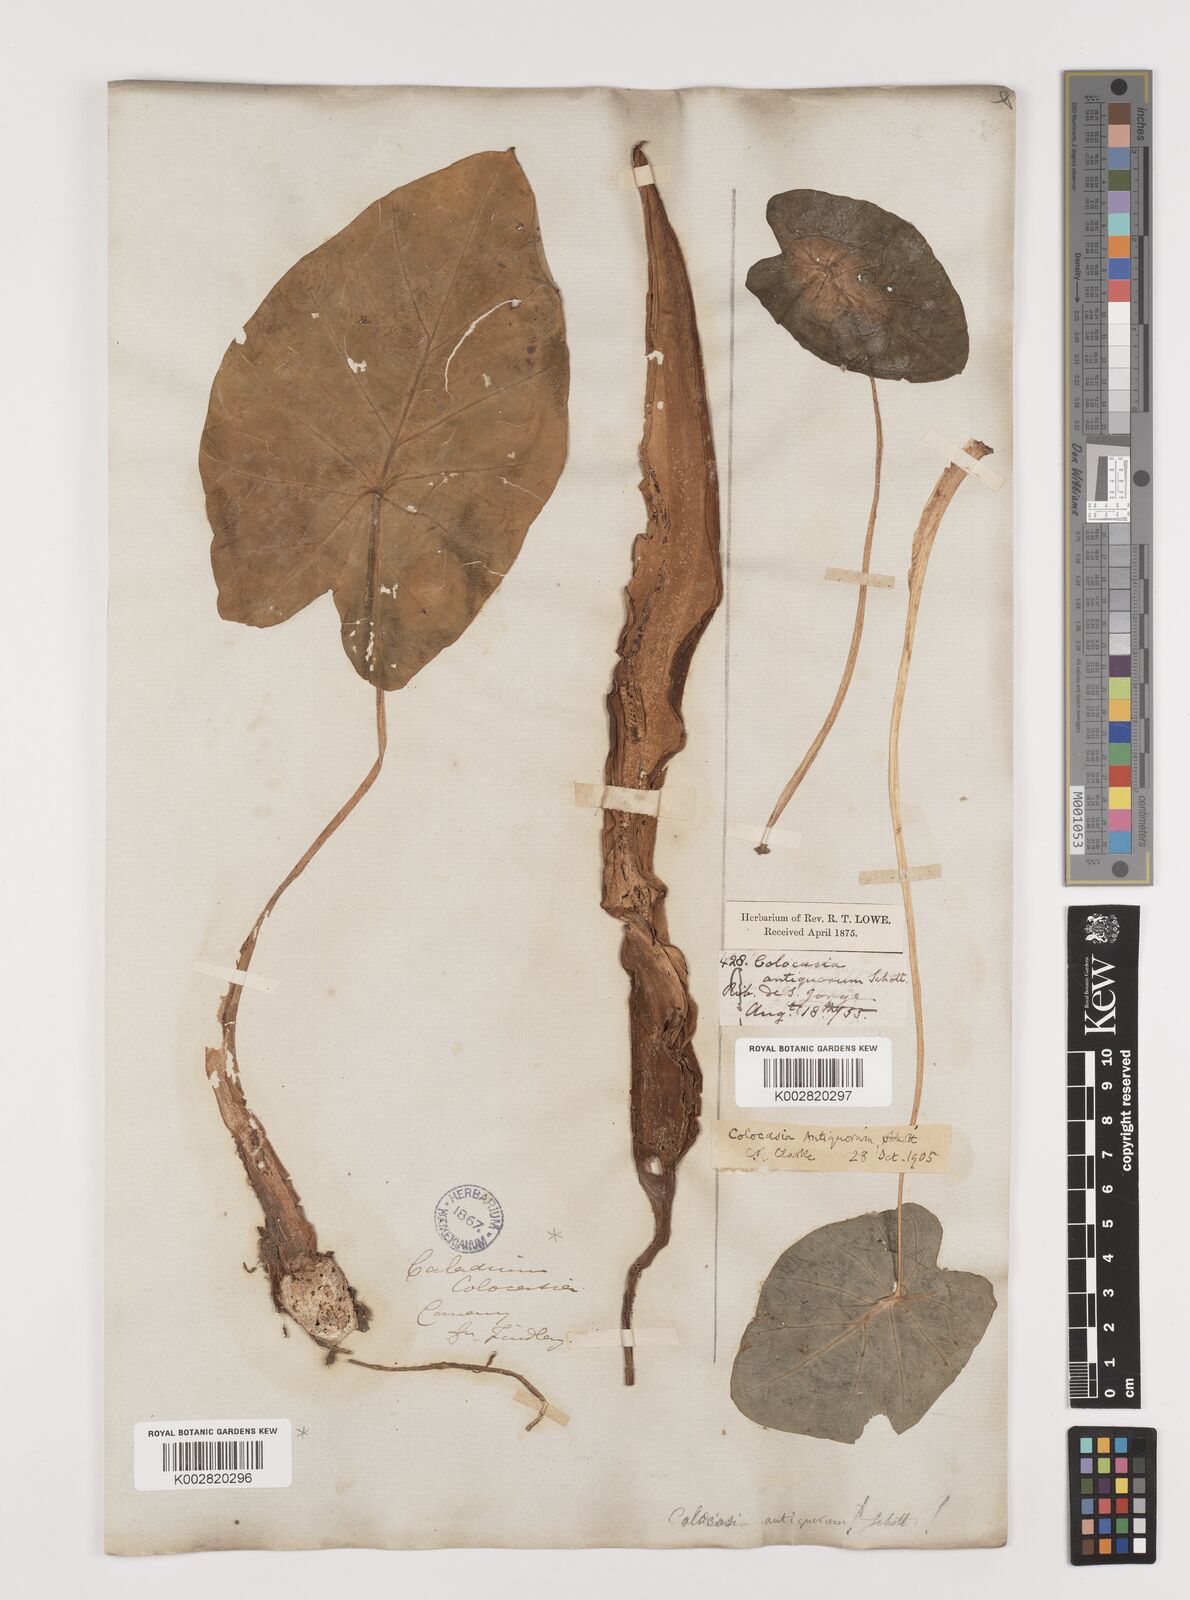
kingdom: Plantae
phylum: Tracheophyta
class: Liliopsida
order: Alismatales
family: Araceae
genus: Colocasia
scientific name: Colocasia esculenta
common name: Taro
